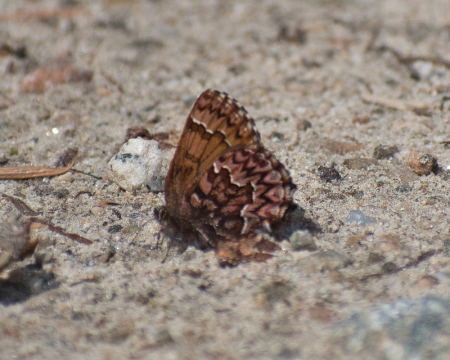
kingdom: Animalia
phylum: Arthropoda
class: Insecta
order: Lepidoptera
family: Lycaenidae
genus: Incisalia
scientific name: Incisalia eryphon
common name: Western Pine Elfin
